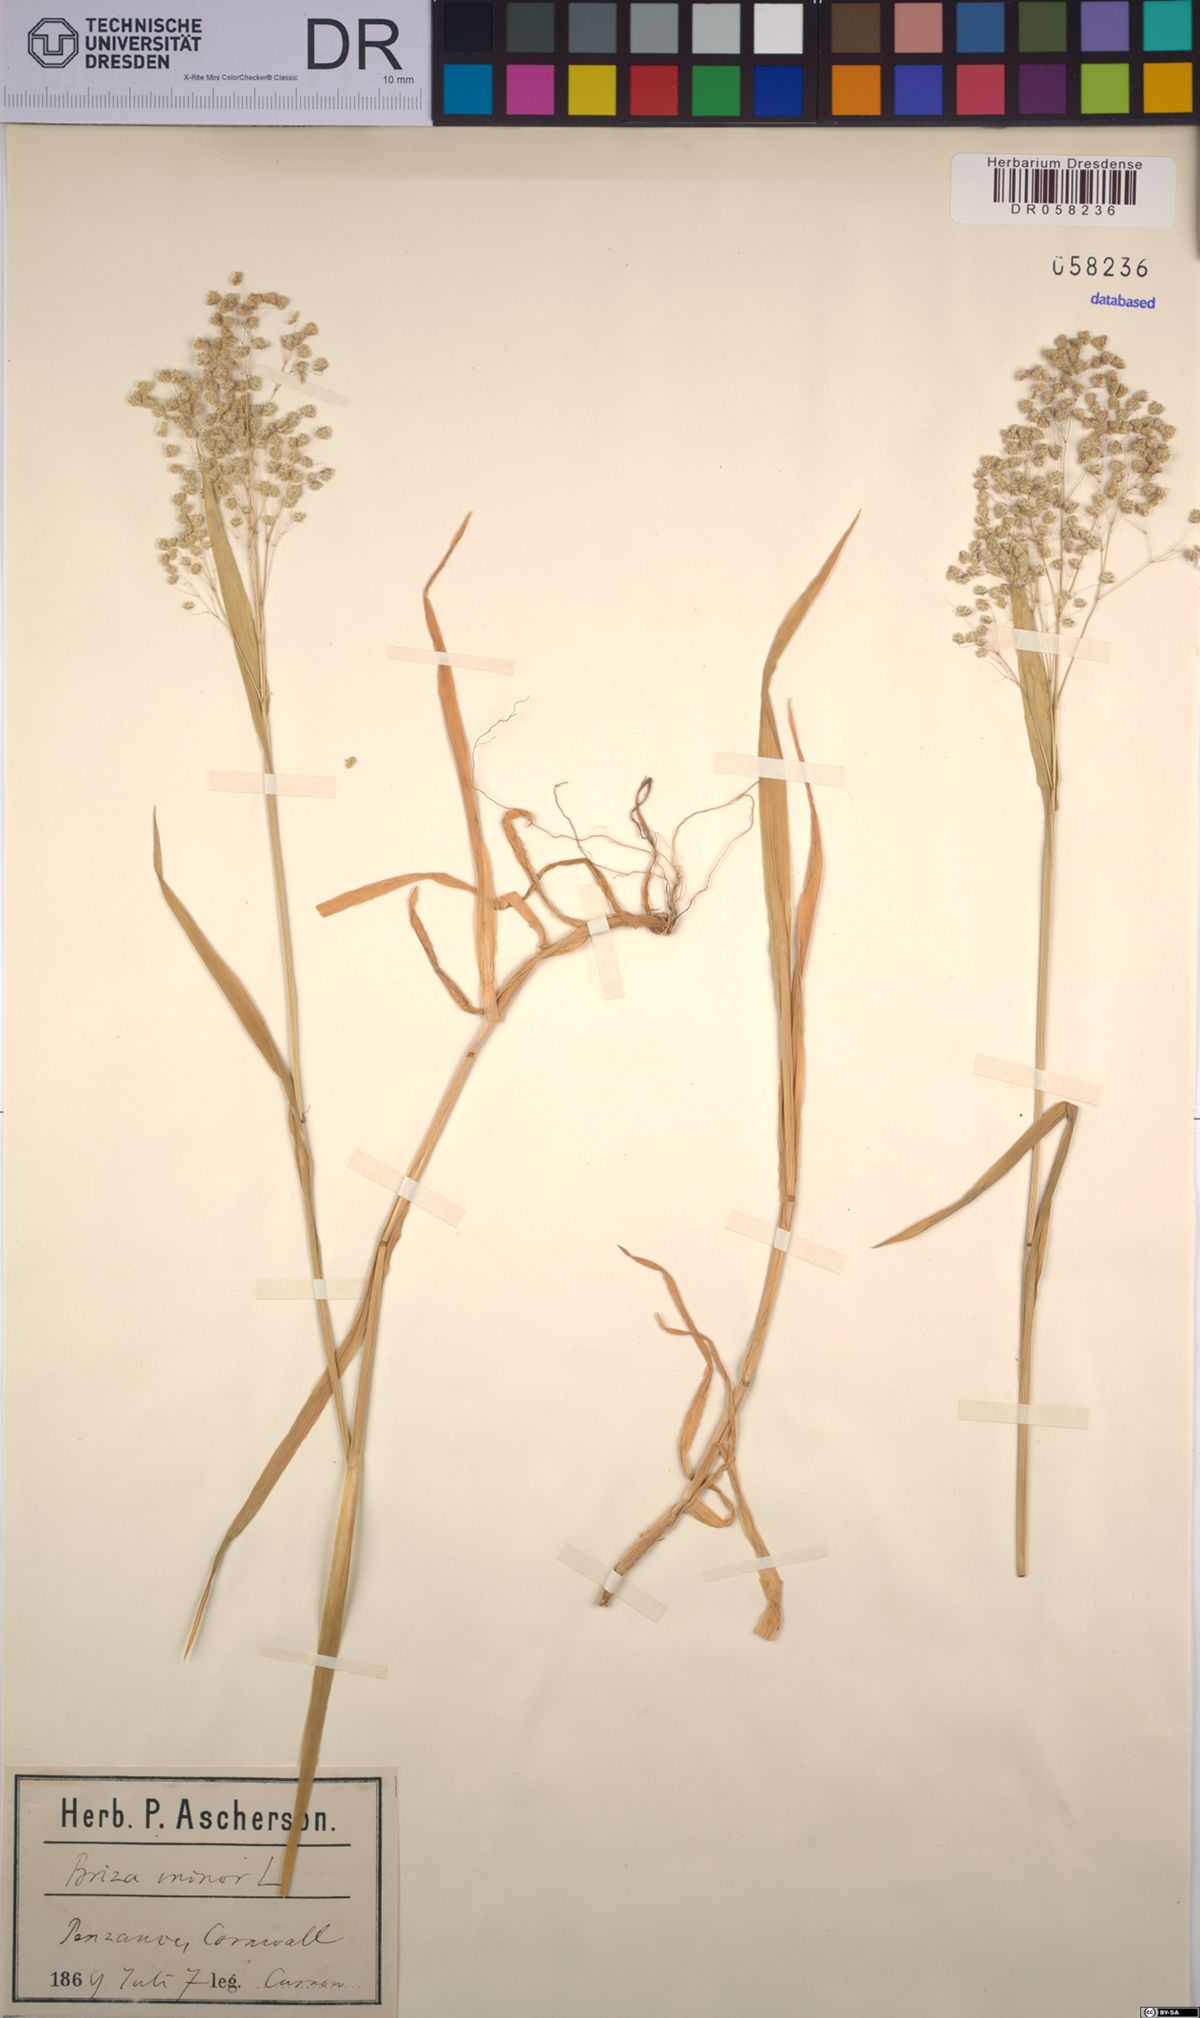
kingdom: Plantae
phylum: Tracheophyta
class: Liliopsida
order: Poales
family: Poaceae
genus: Briza
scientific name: Briza minor
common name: Lesser quaking-grass
